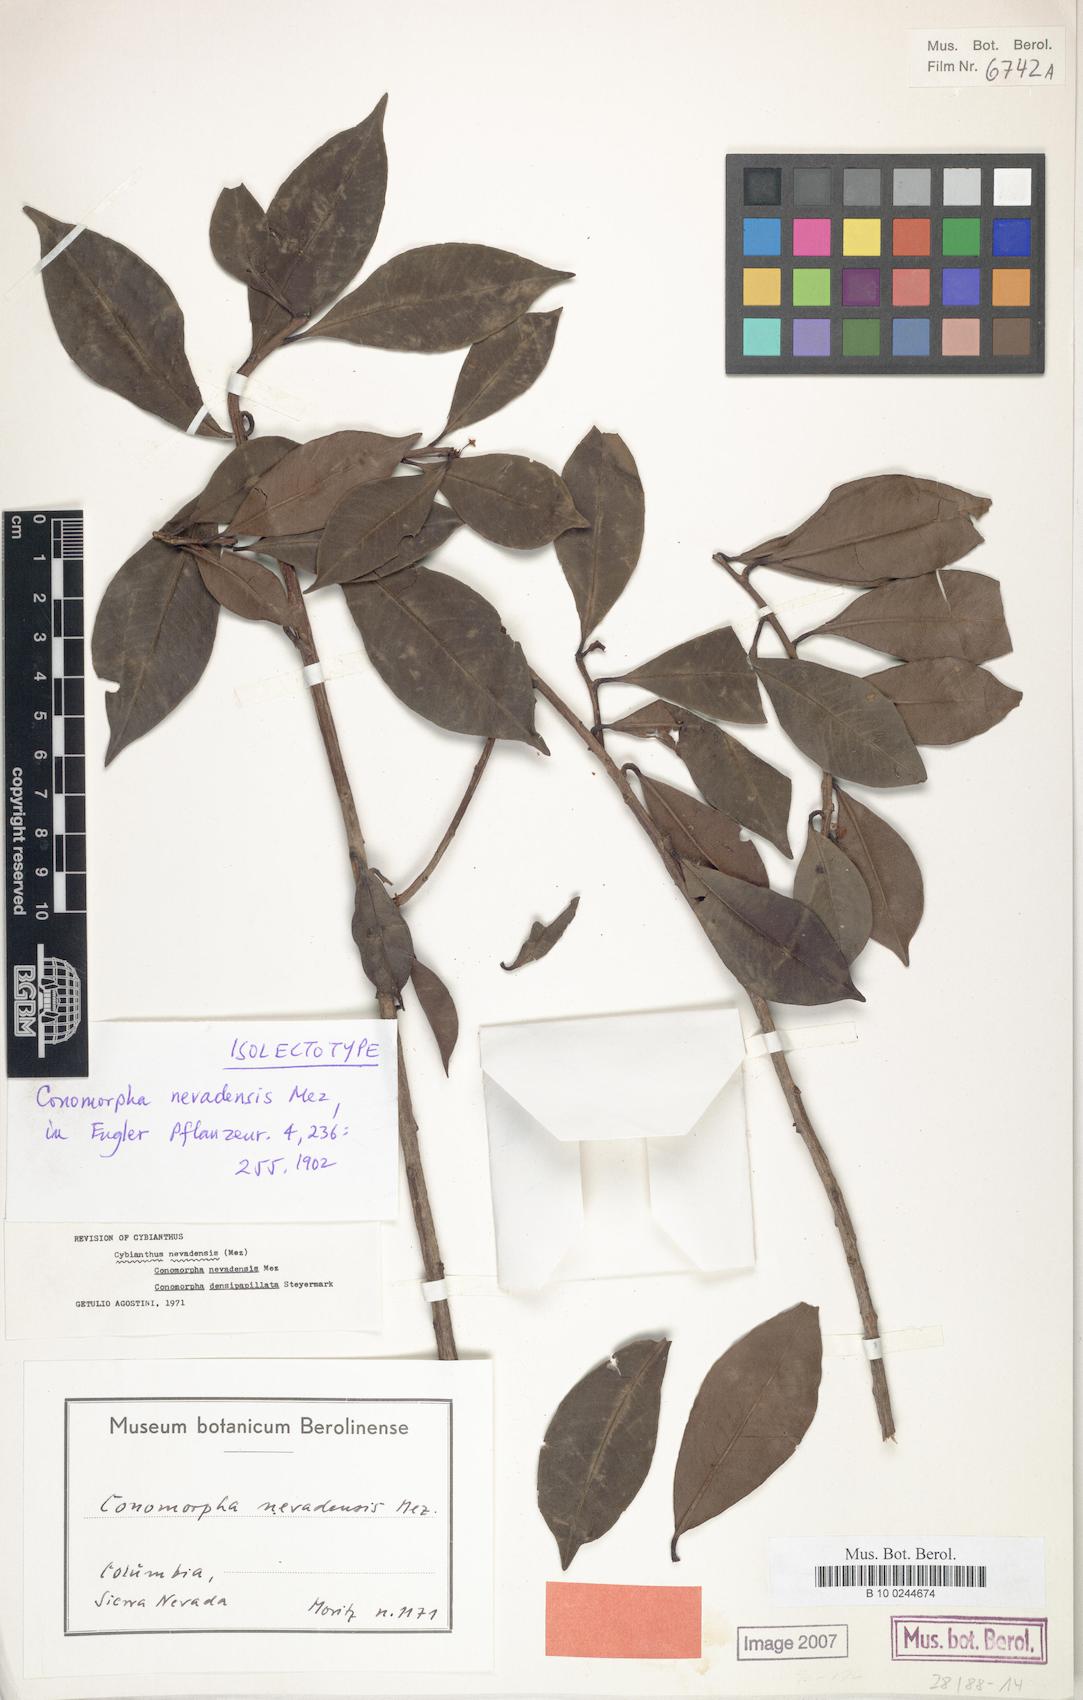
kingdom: Plantae
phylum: Tracheophyta
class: Magnoliopsida
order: Ericales
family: Primulaceae
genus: Cybianthus
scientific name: Cybianthus nevadensis
